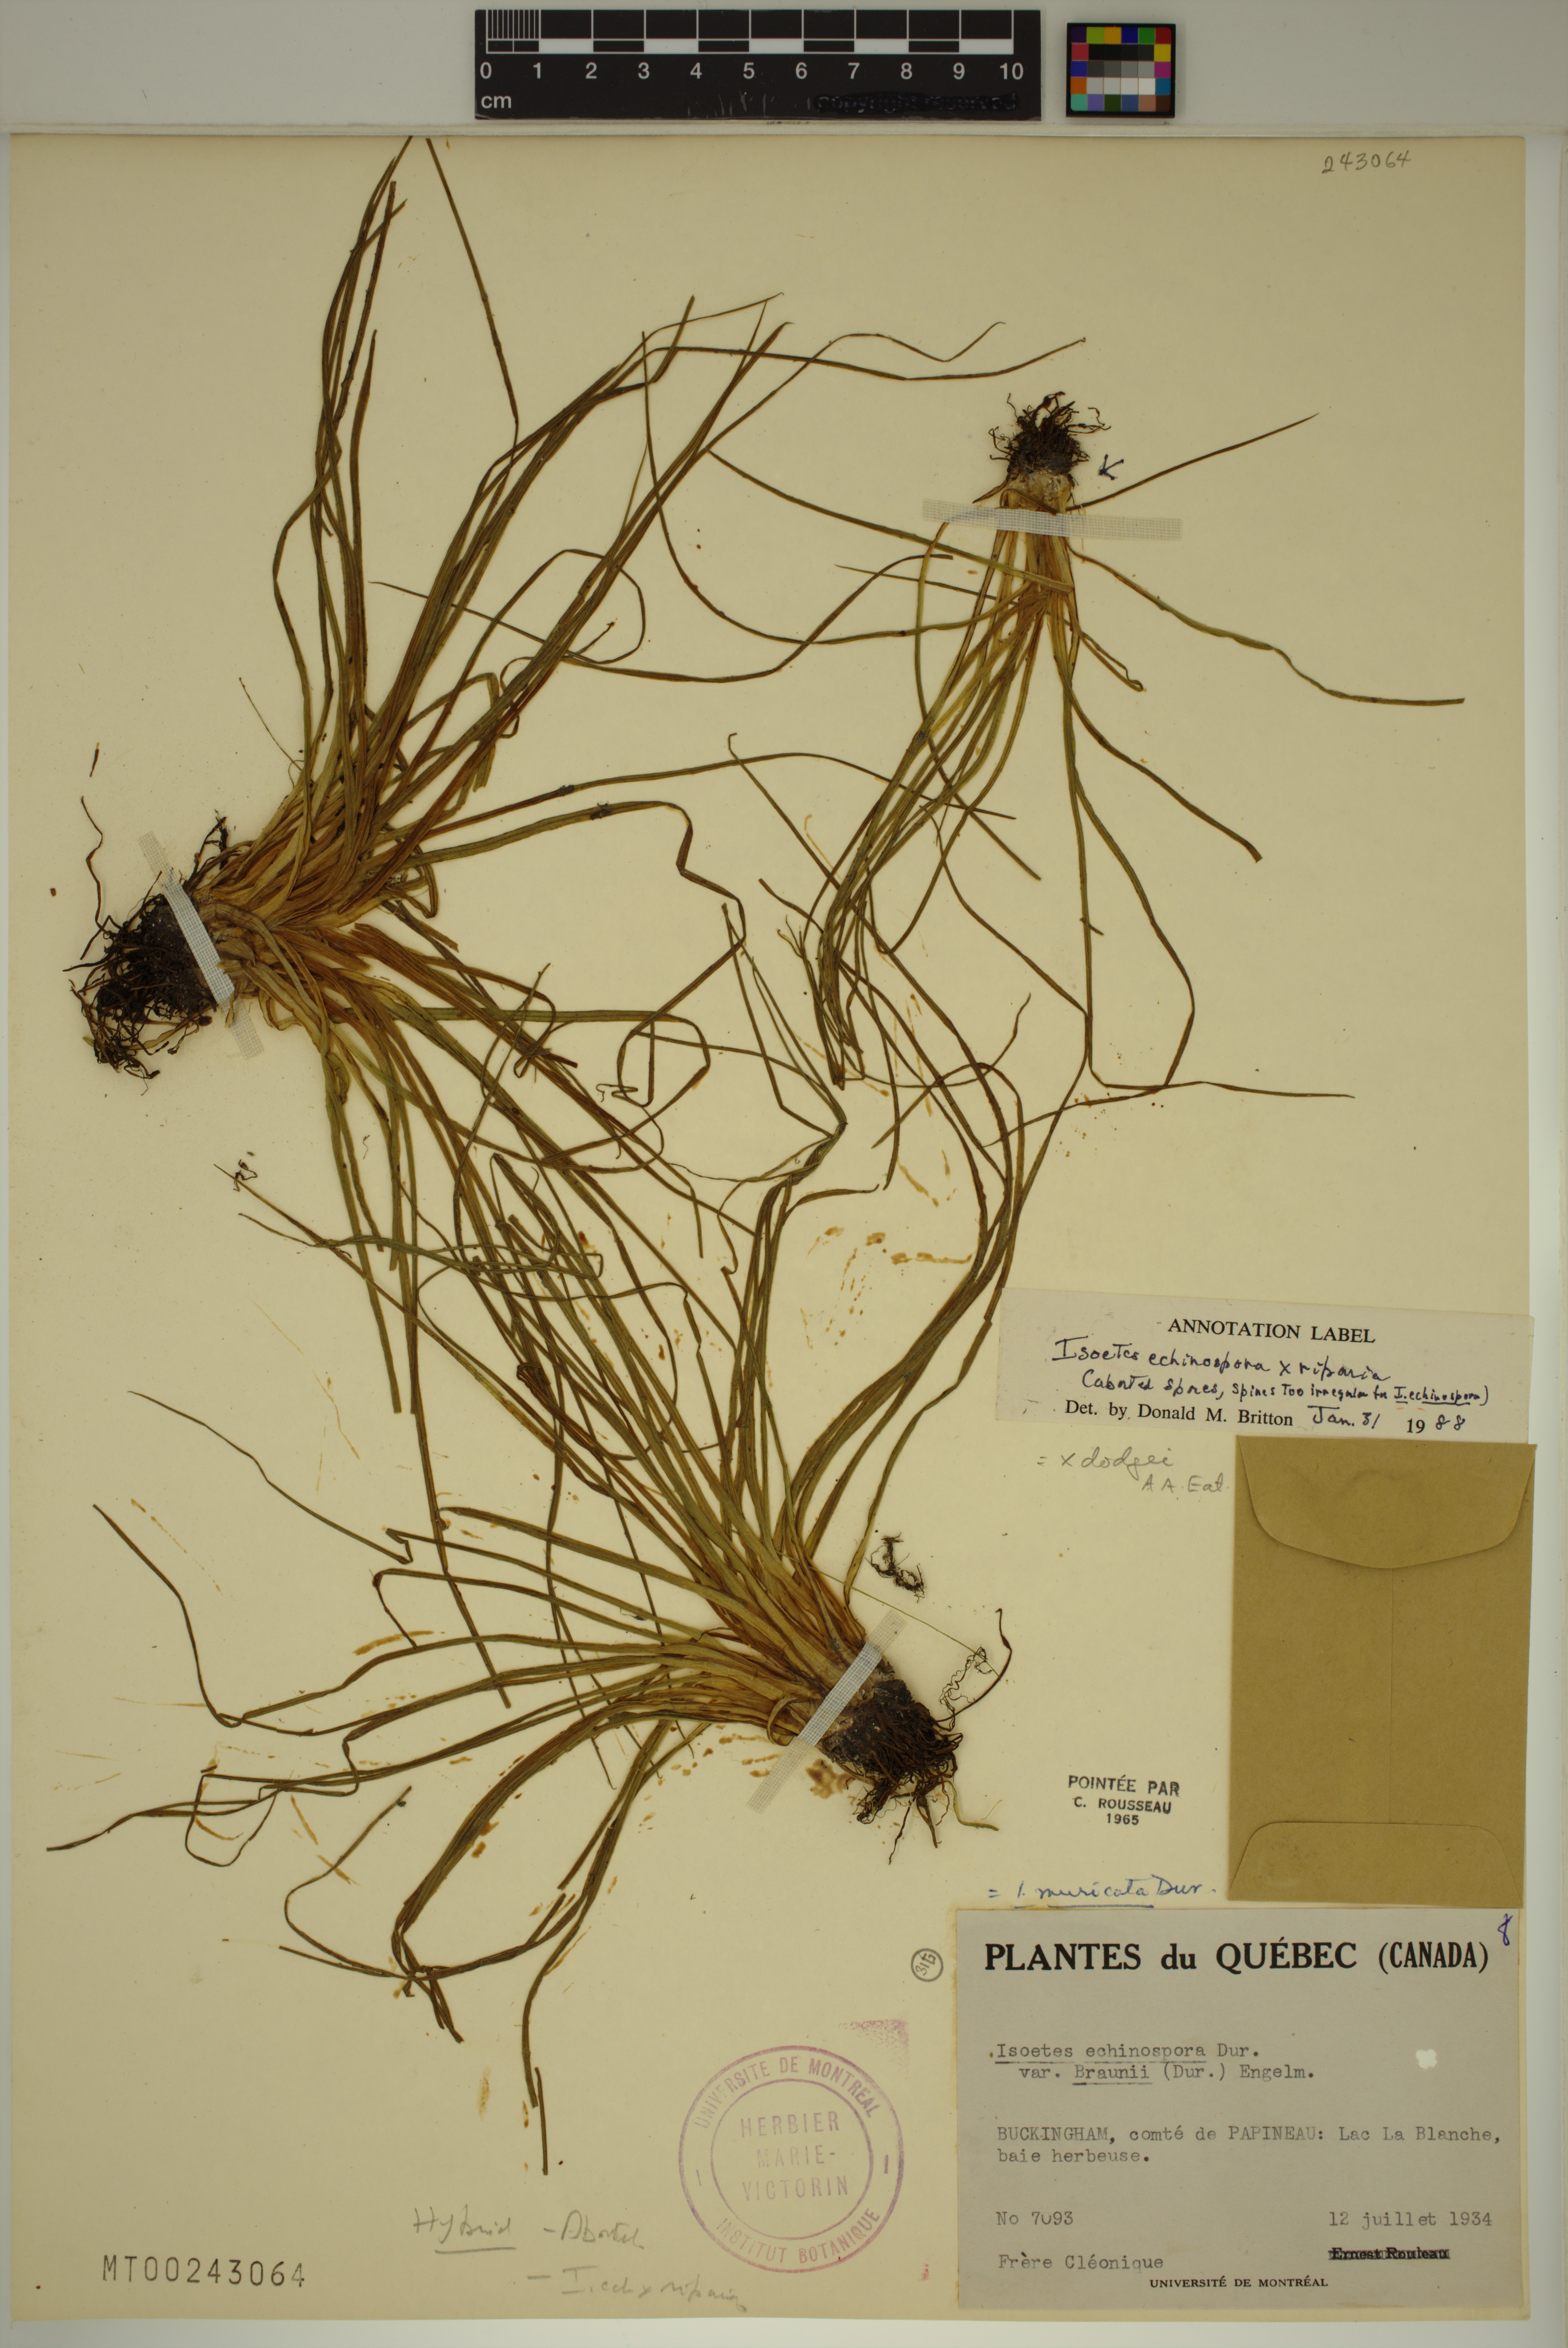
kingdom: Plantae
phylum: Tracheophyta
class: Lycopodiopsida
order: Isoetales
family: Isoetaceae
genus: Isoetes
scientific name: Isoetes robusta
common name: Robust quillwort
